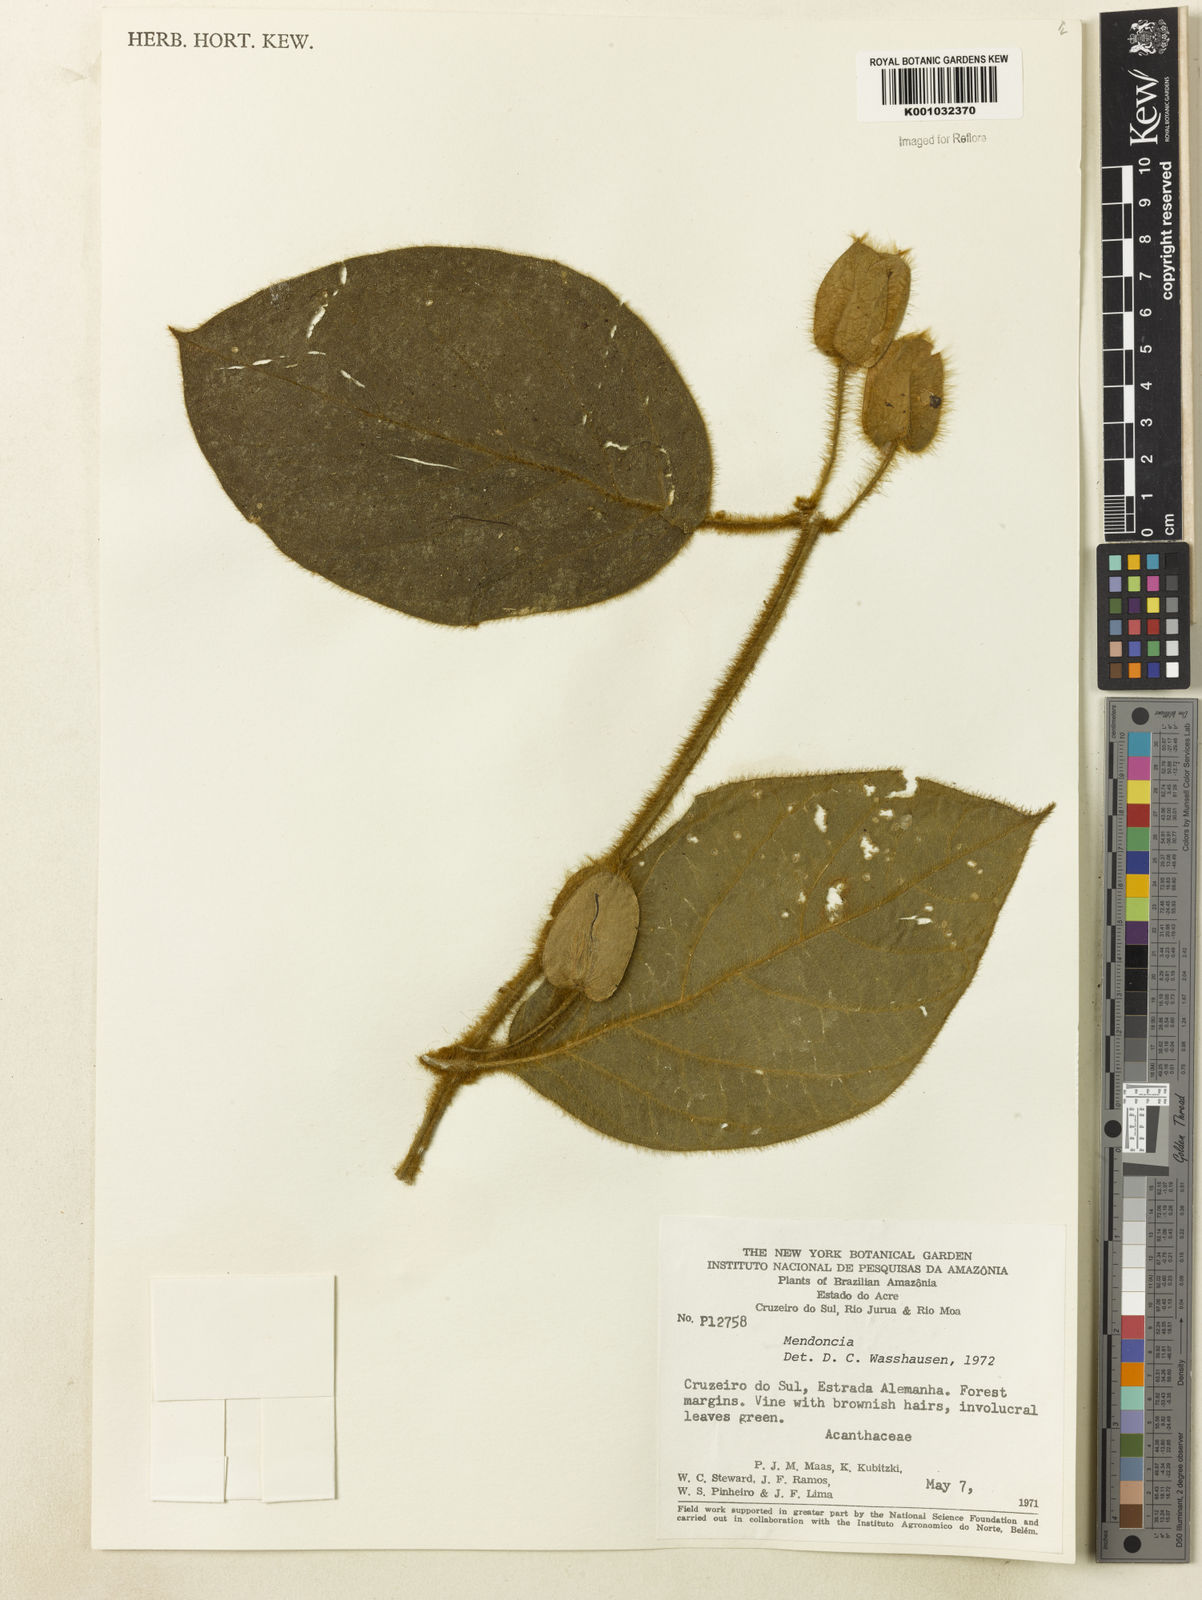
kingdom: Plantae
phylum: Tracheophyta
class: Magnoliopsida
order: Lamiales
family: Acanthaceae
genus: Mendoncia
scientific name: Mendoncia
